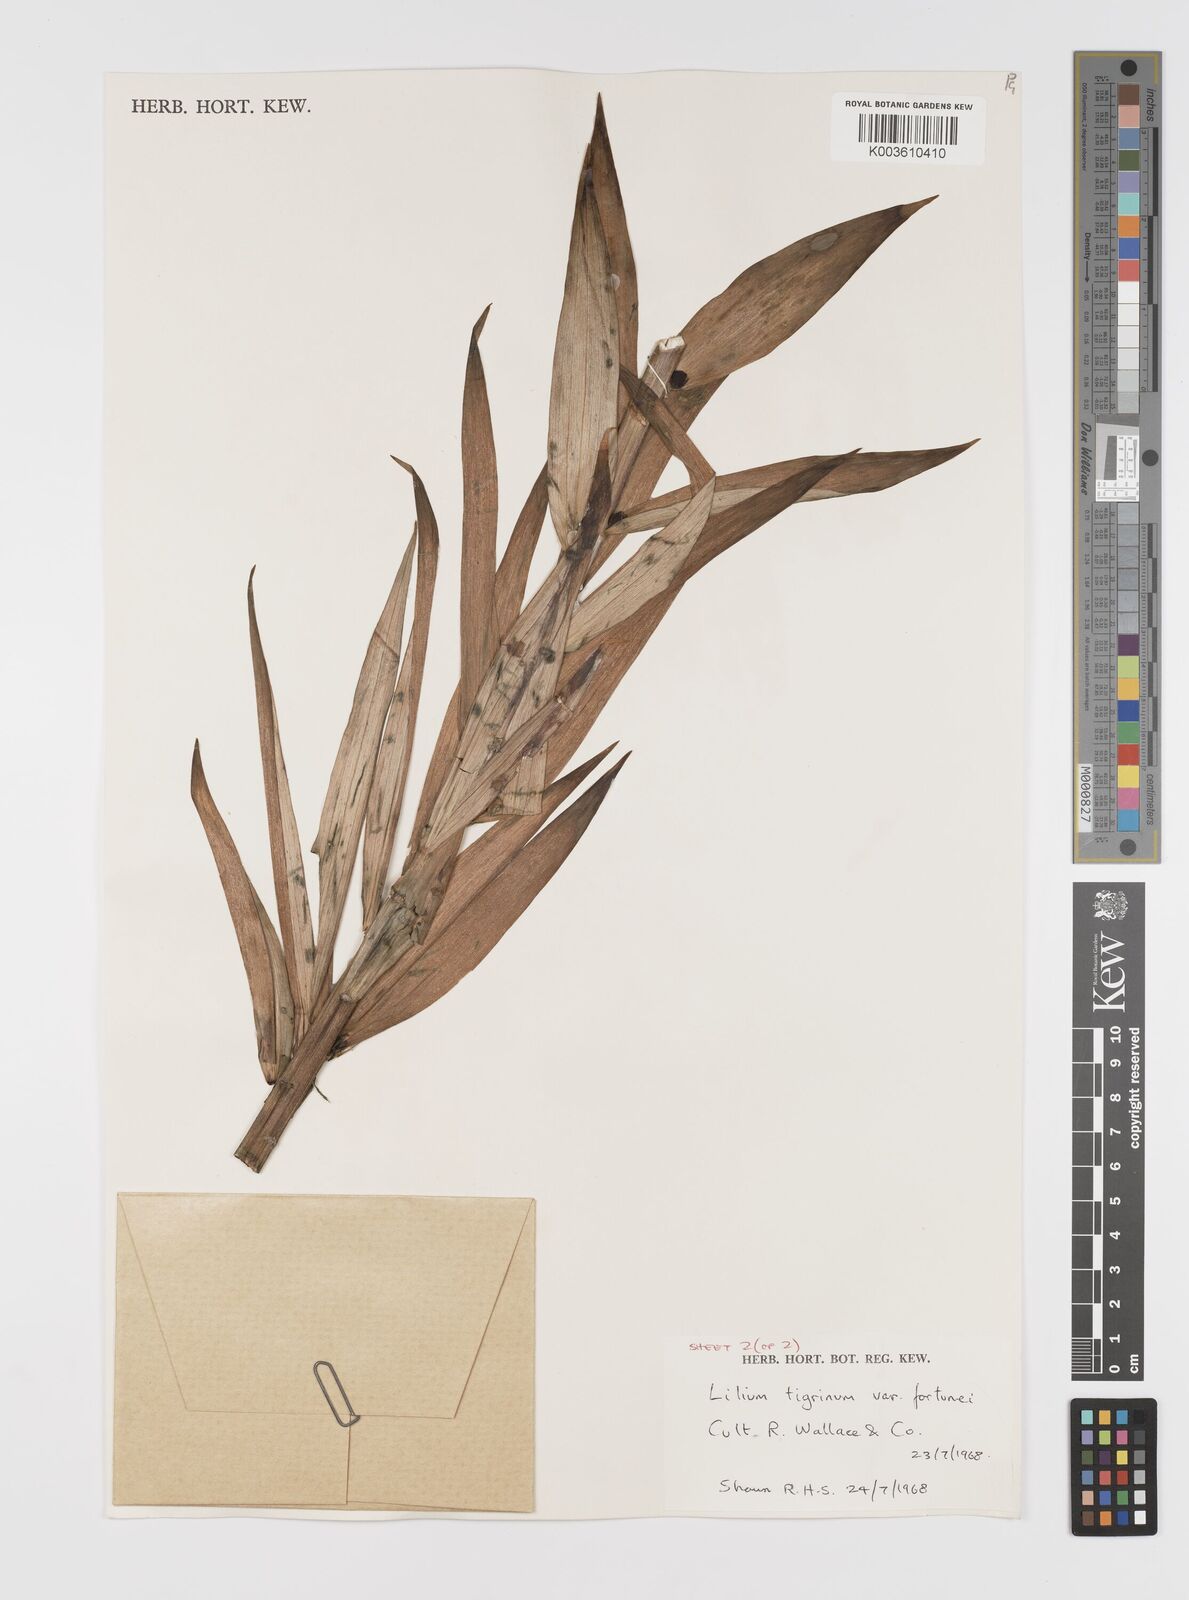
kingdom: Plantae
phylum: Tracheophyta
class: Liliopsida
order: Liliales
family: Liliaceae
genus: Lilium
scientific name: Lilium lancifolium
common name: Tiger lily
